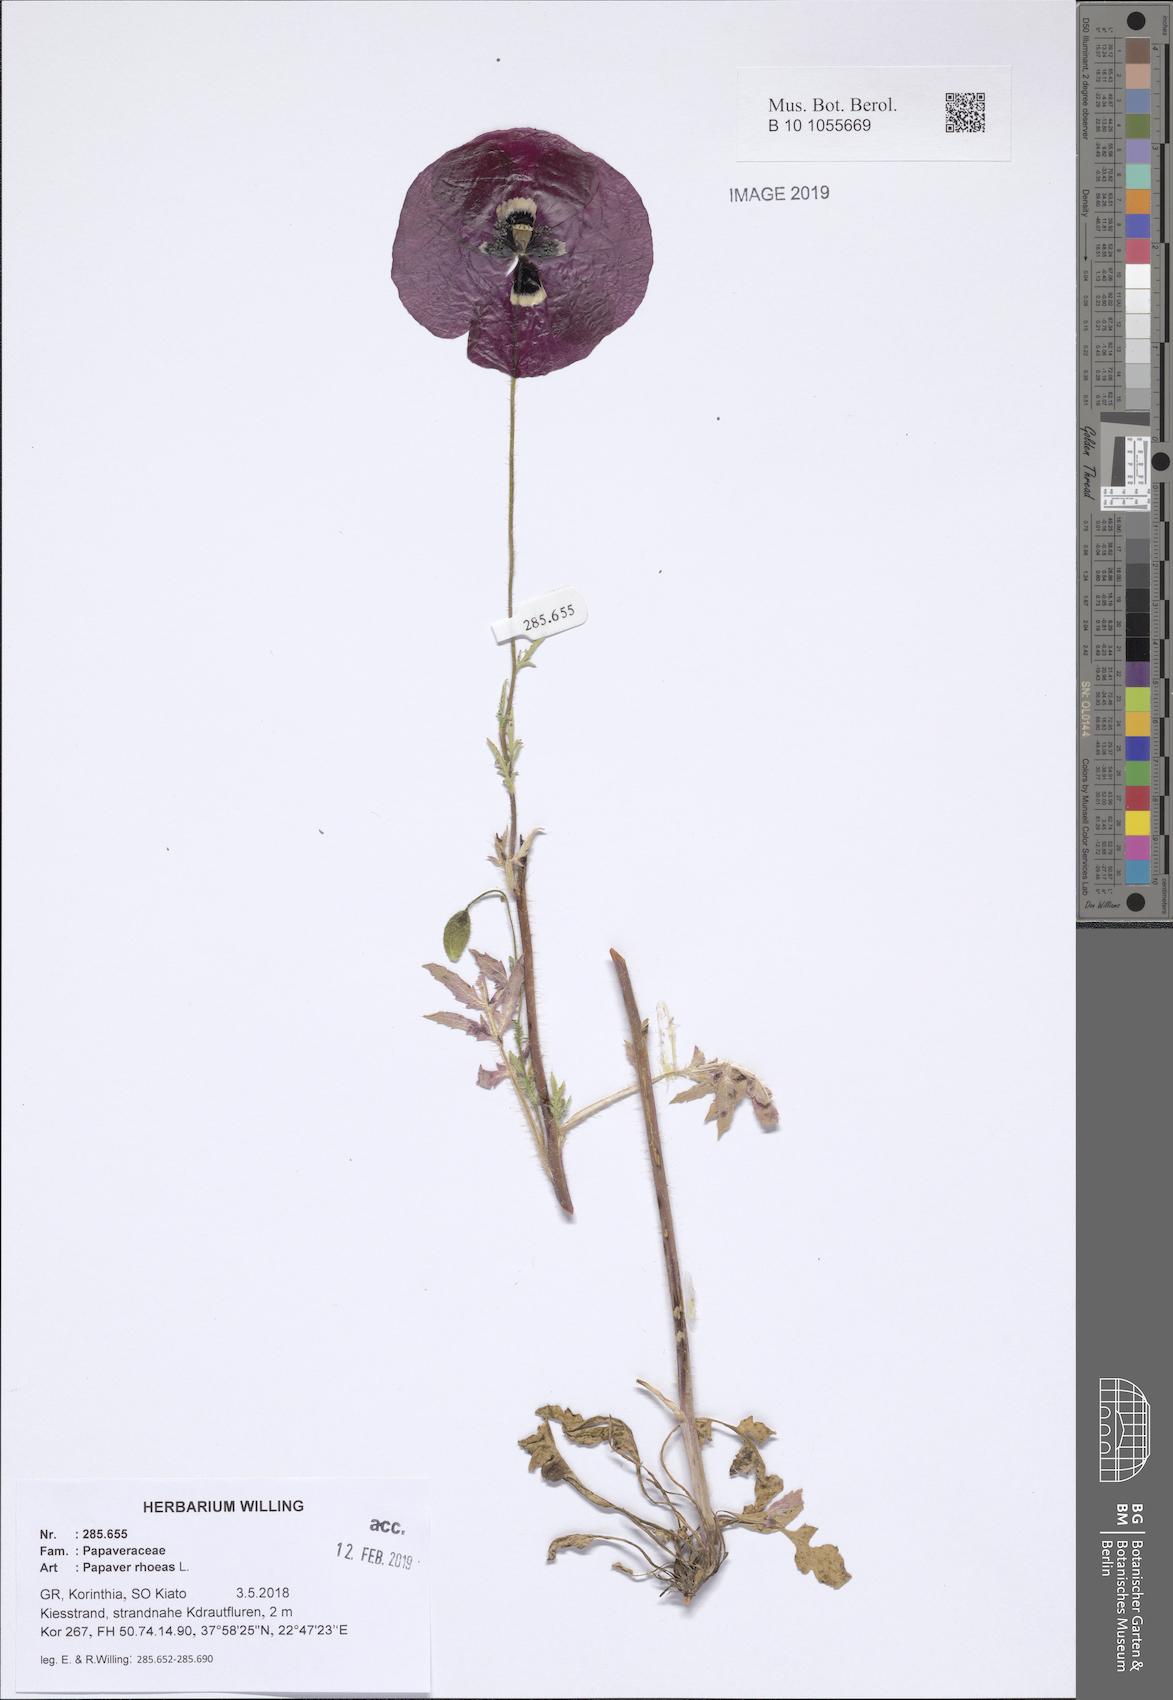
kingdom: Plantae
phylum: Tracheophyta
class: Magnoliopsida
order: Ranunculales
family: Papaveraceae
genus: Papaver
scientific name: Papaver rhoeas
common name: Corn poppy
